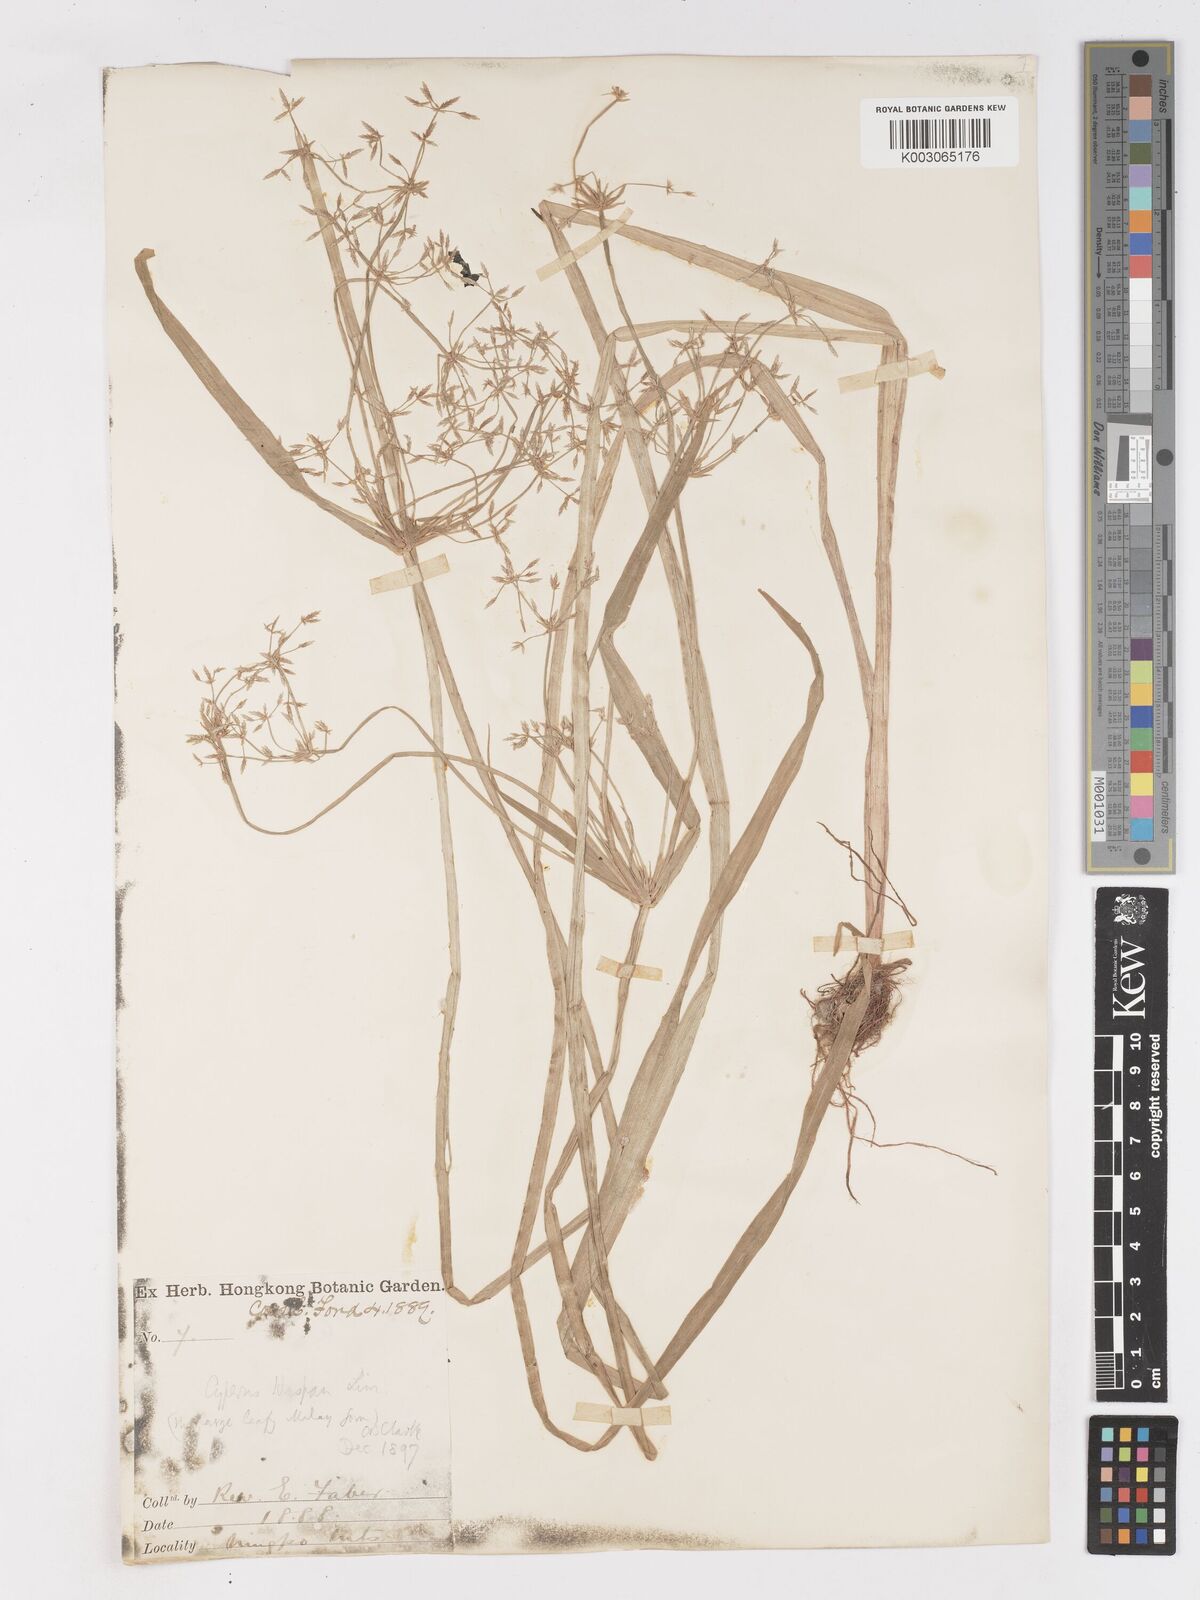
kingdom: Plantae
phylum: Tracheophyta
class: Liliopsida
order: Poales
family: Cyperaceae
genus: Cyperus
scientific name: Cyperus haspan
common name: Haspan flatsedge
